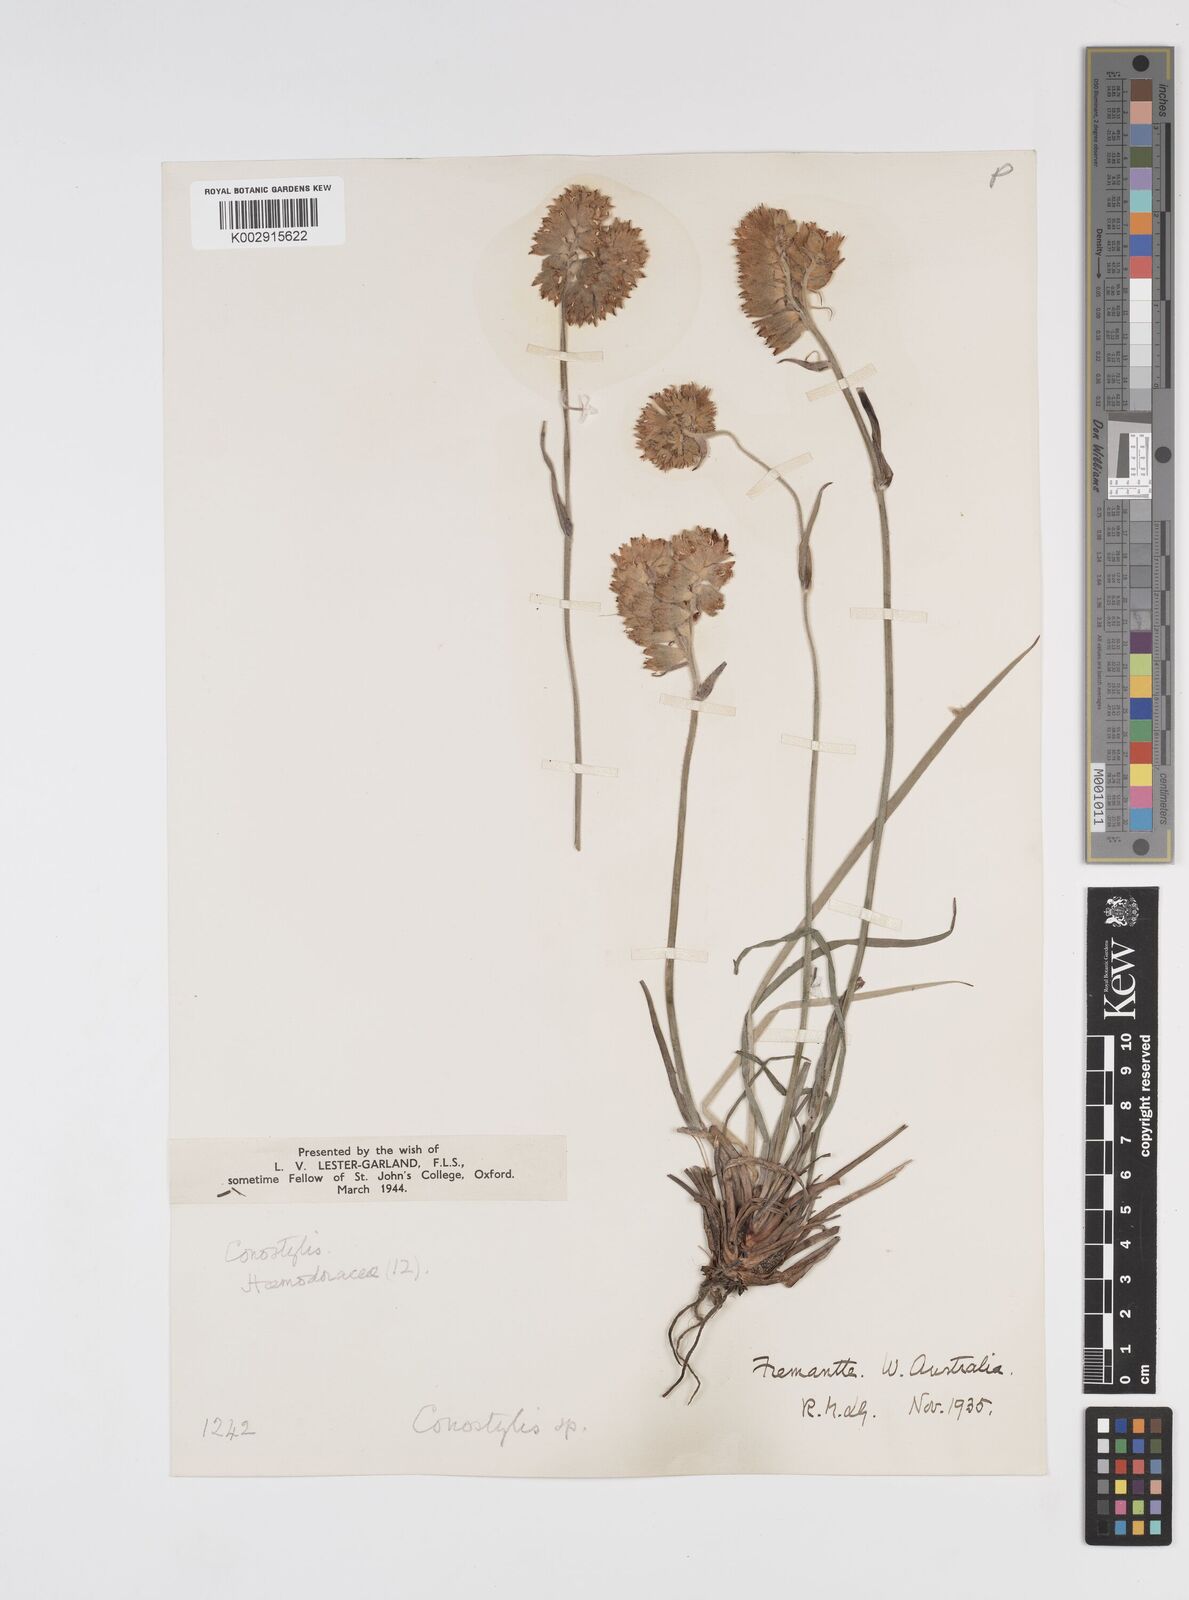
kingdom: Plantae
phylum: Tracheophyta
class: Liliopsida
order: Commelinales
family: Haemodoraceae
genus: Conostylis
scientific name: Conostylis candicans
